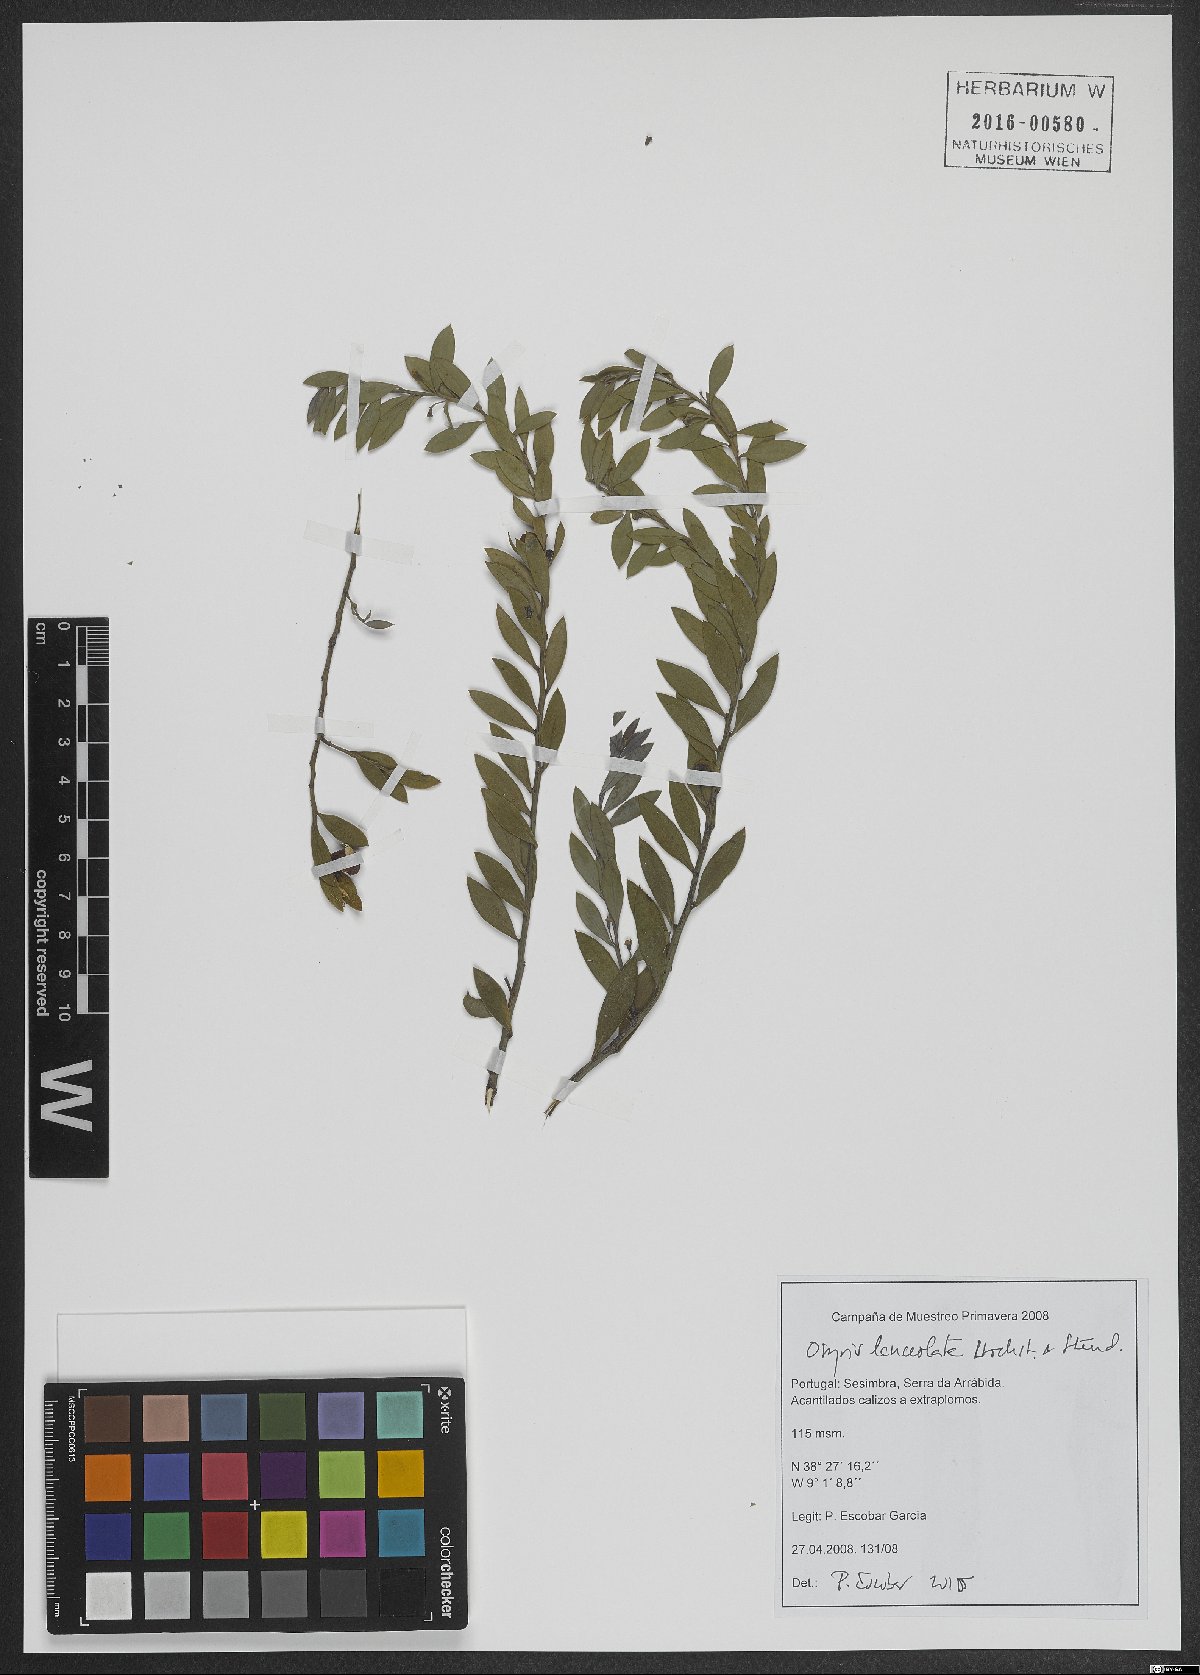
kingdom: Plantae
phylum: Tracheophyta
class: Magnoliopsida
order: Santalales
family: Santalaceae
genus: Osyris
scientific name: Osyris lanceolata
